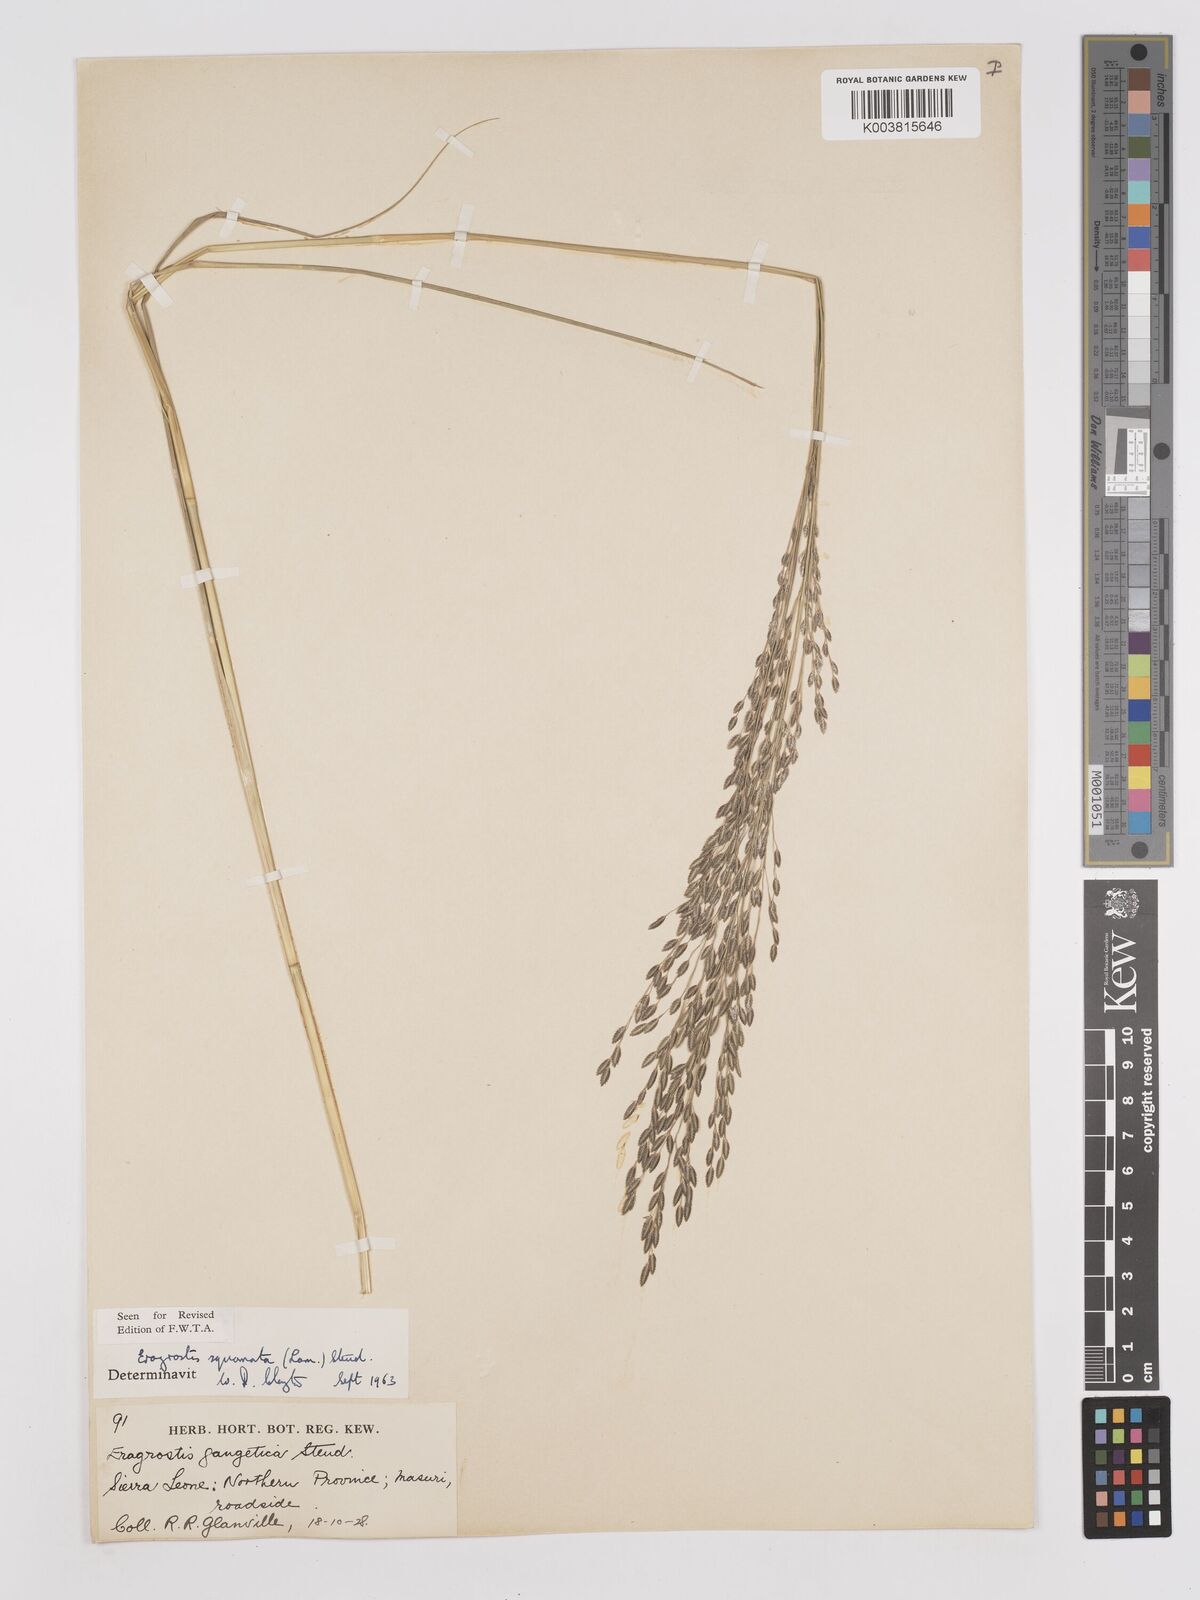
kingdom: Plantae
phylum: Tracheophyta
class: Liliopsida
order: Poales
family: Poaceae
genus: Eragrostis
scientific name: Eragrostis squamata
